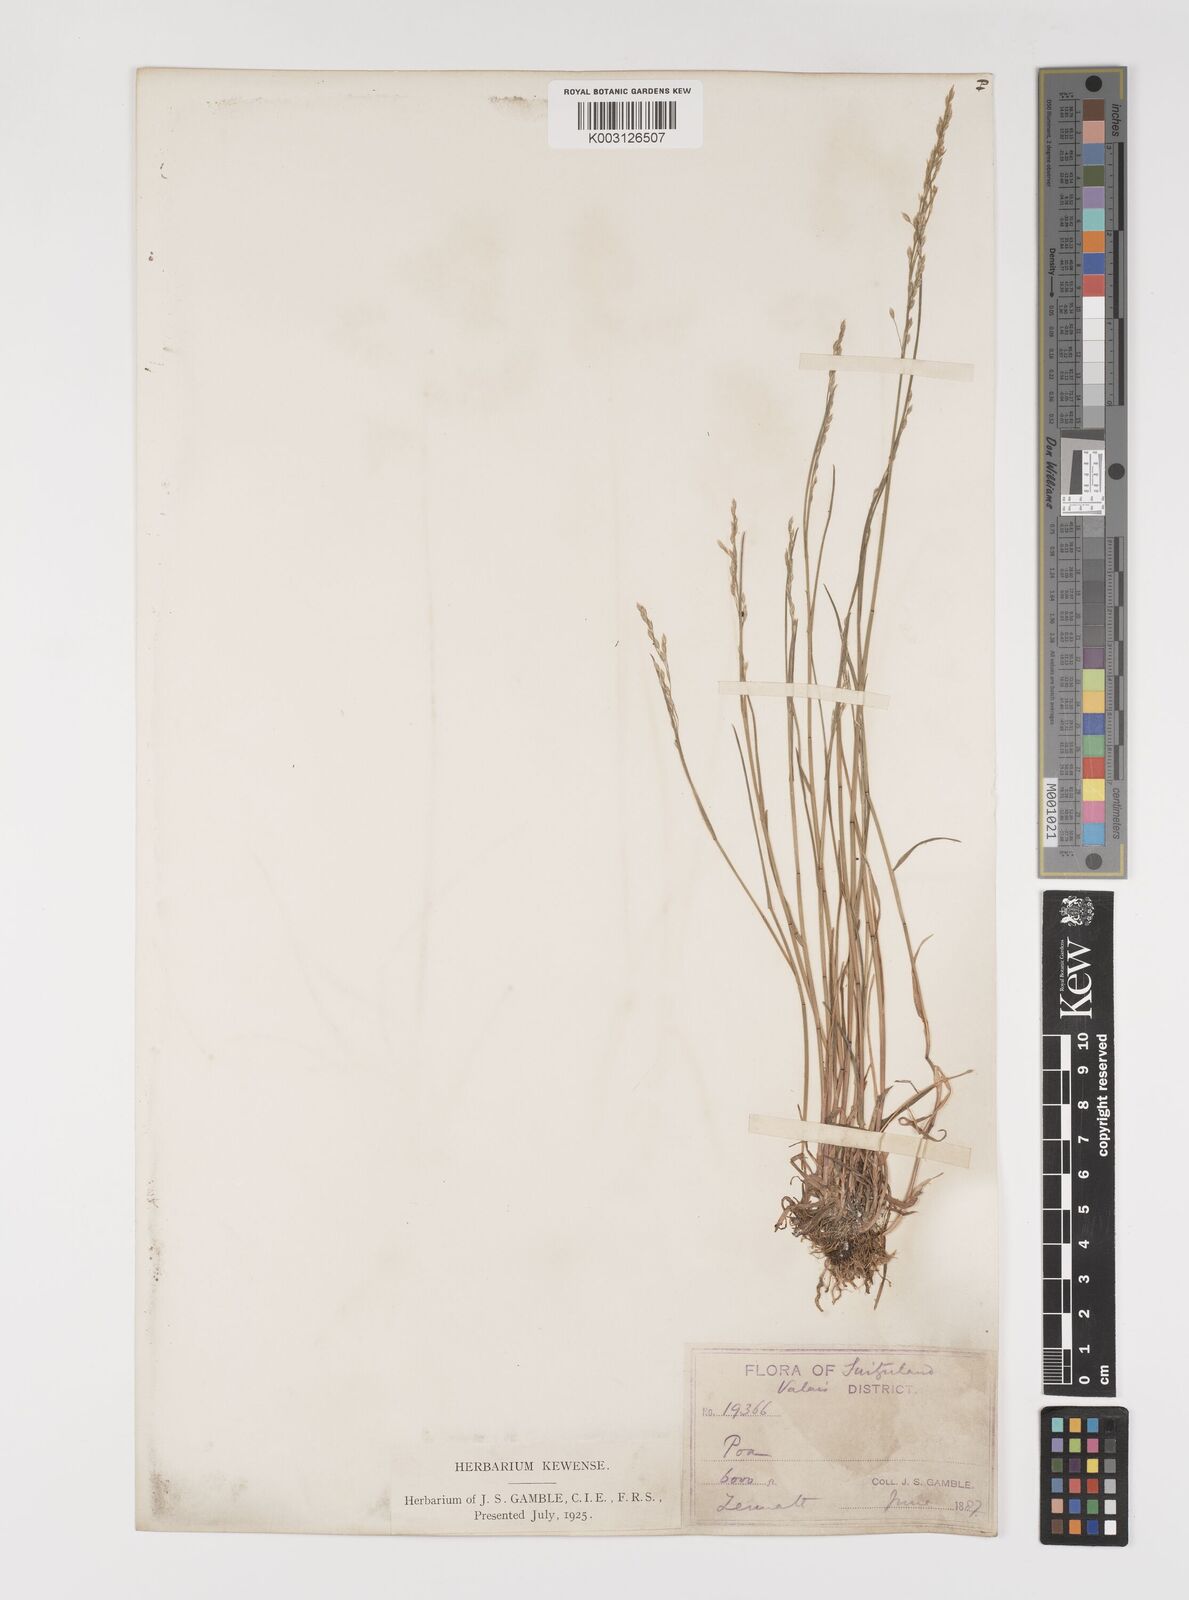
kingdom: Plantae
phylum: Tracheophyta
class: Liliopsida
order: Poales
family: Poaceae
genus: Poa
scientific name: Poa nemoralis
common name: Wood bluegrass
